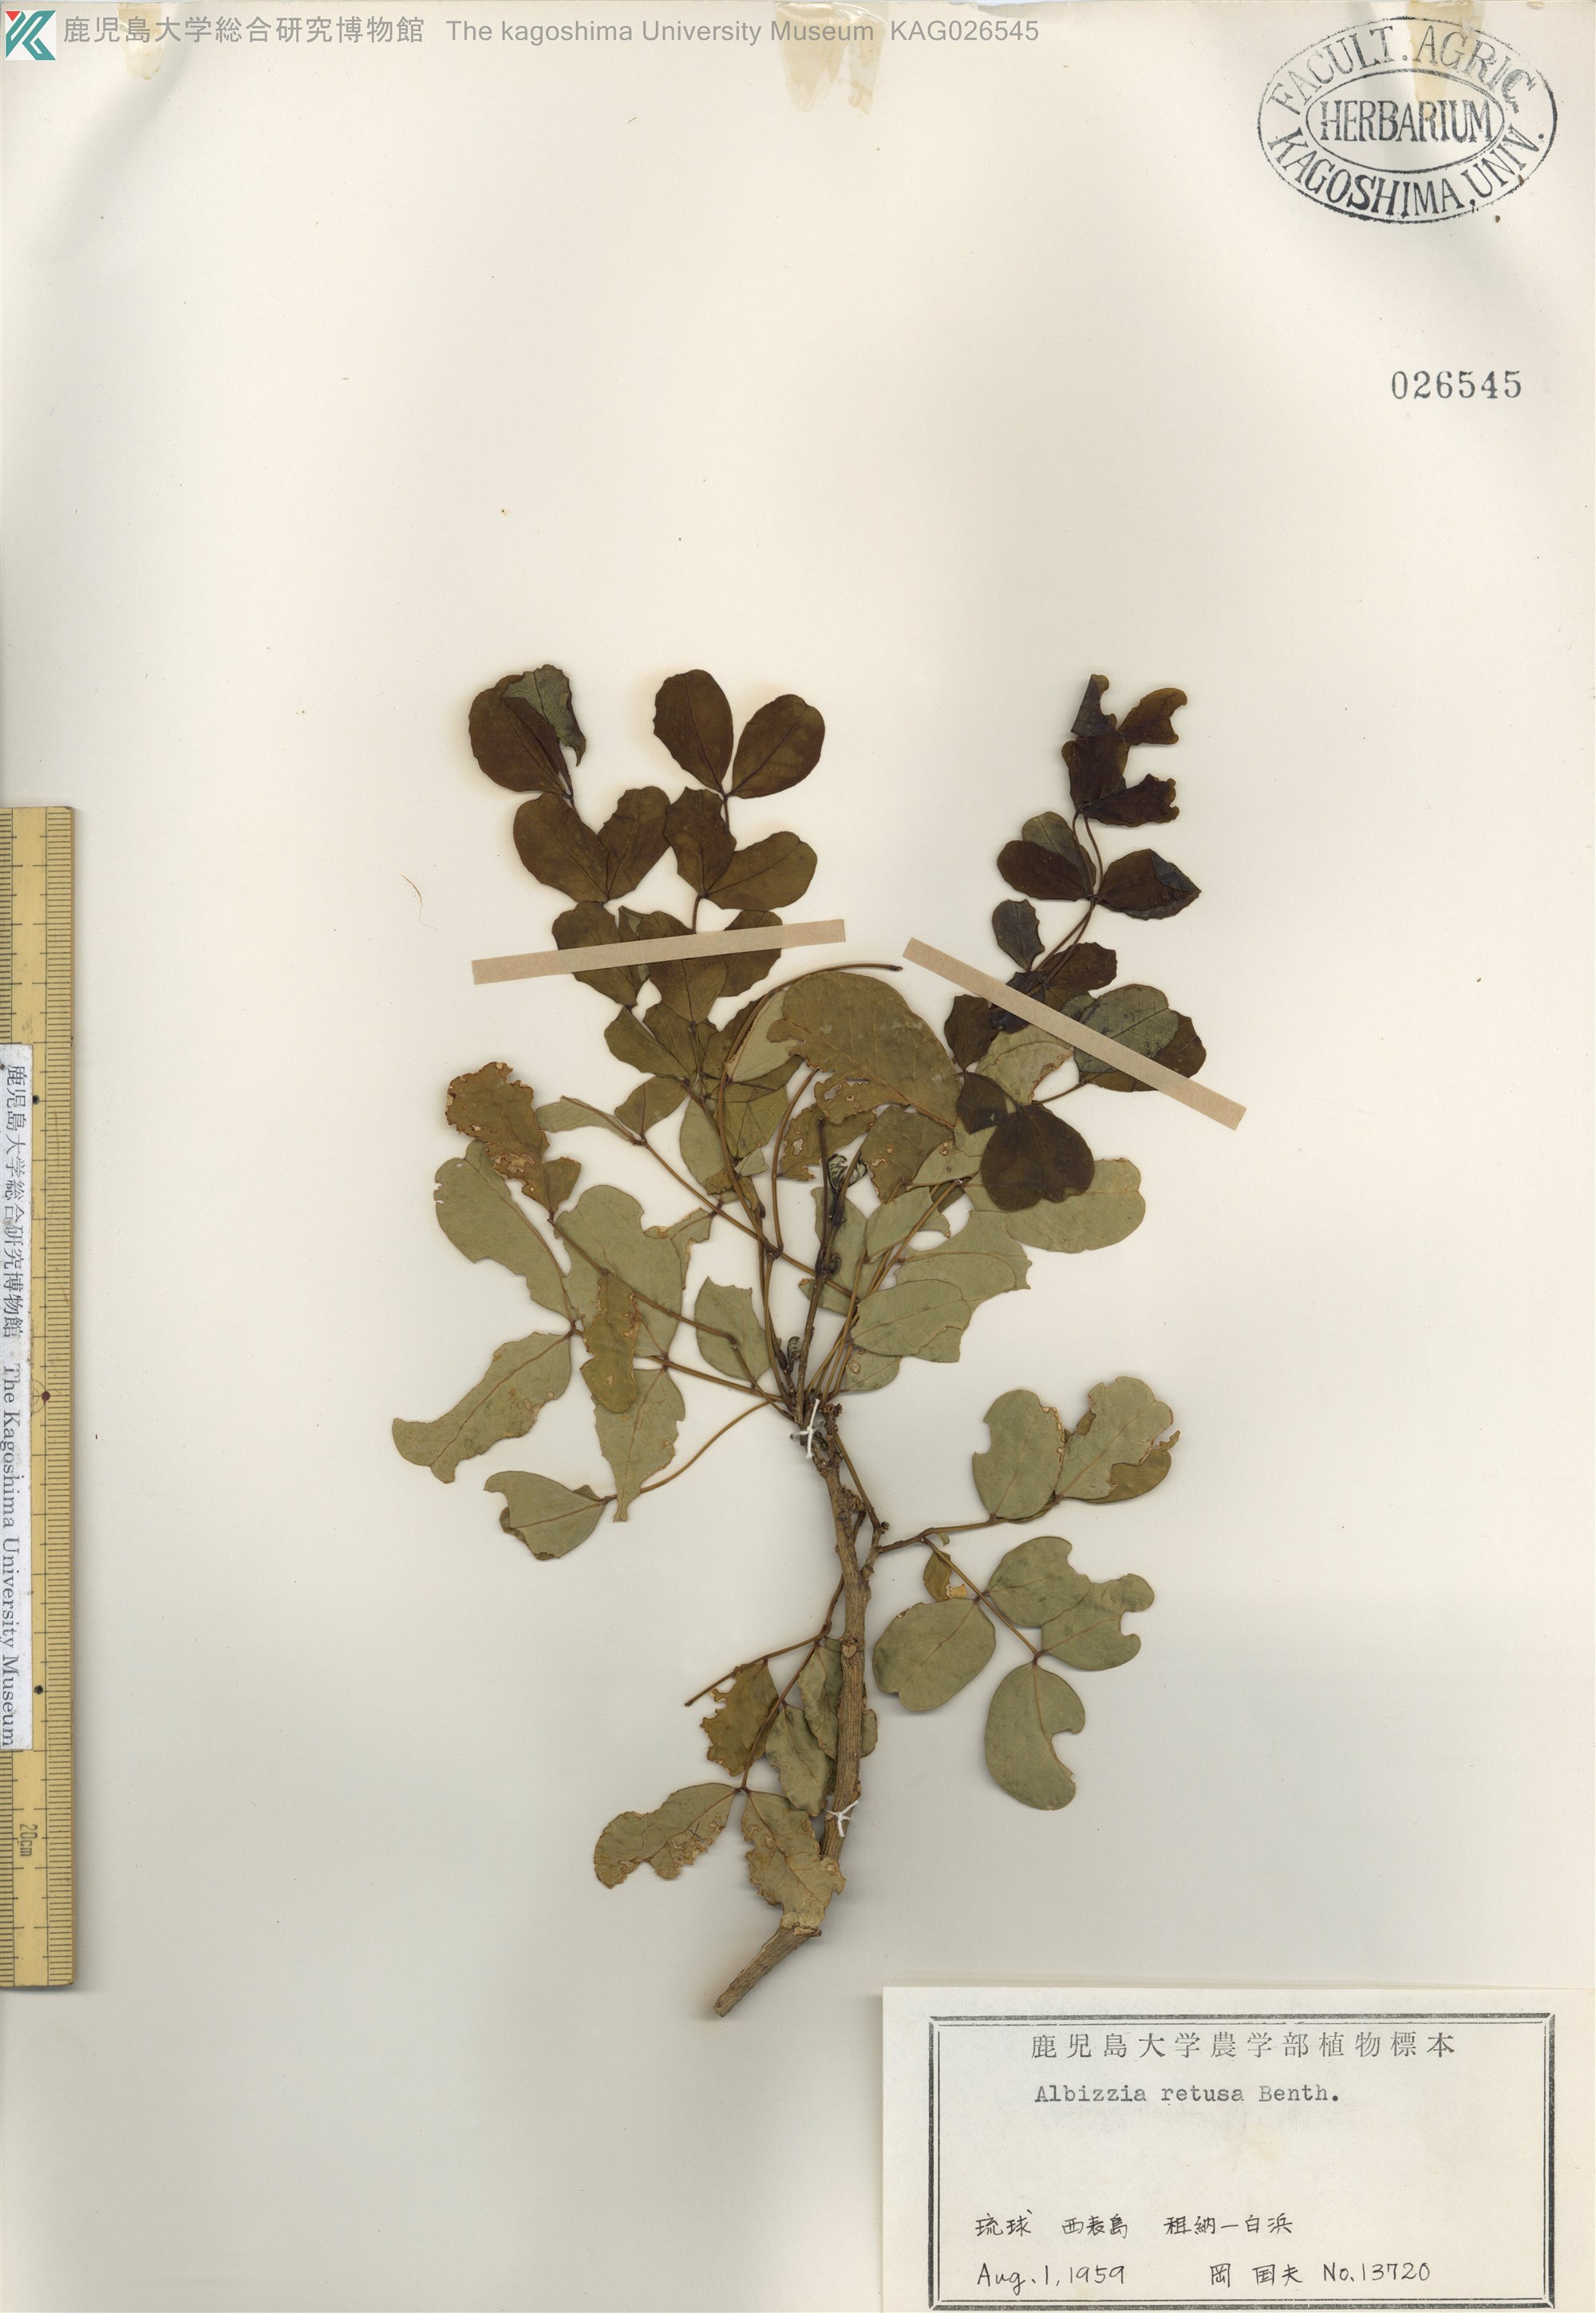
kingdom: Plantae
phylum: Tracheophyta
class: Magnoliopsida
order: Fabales
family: Fabaceae
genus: Albizia
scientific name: Albizia retusa
